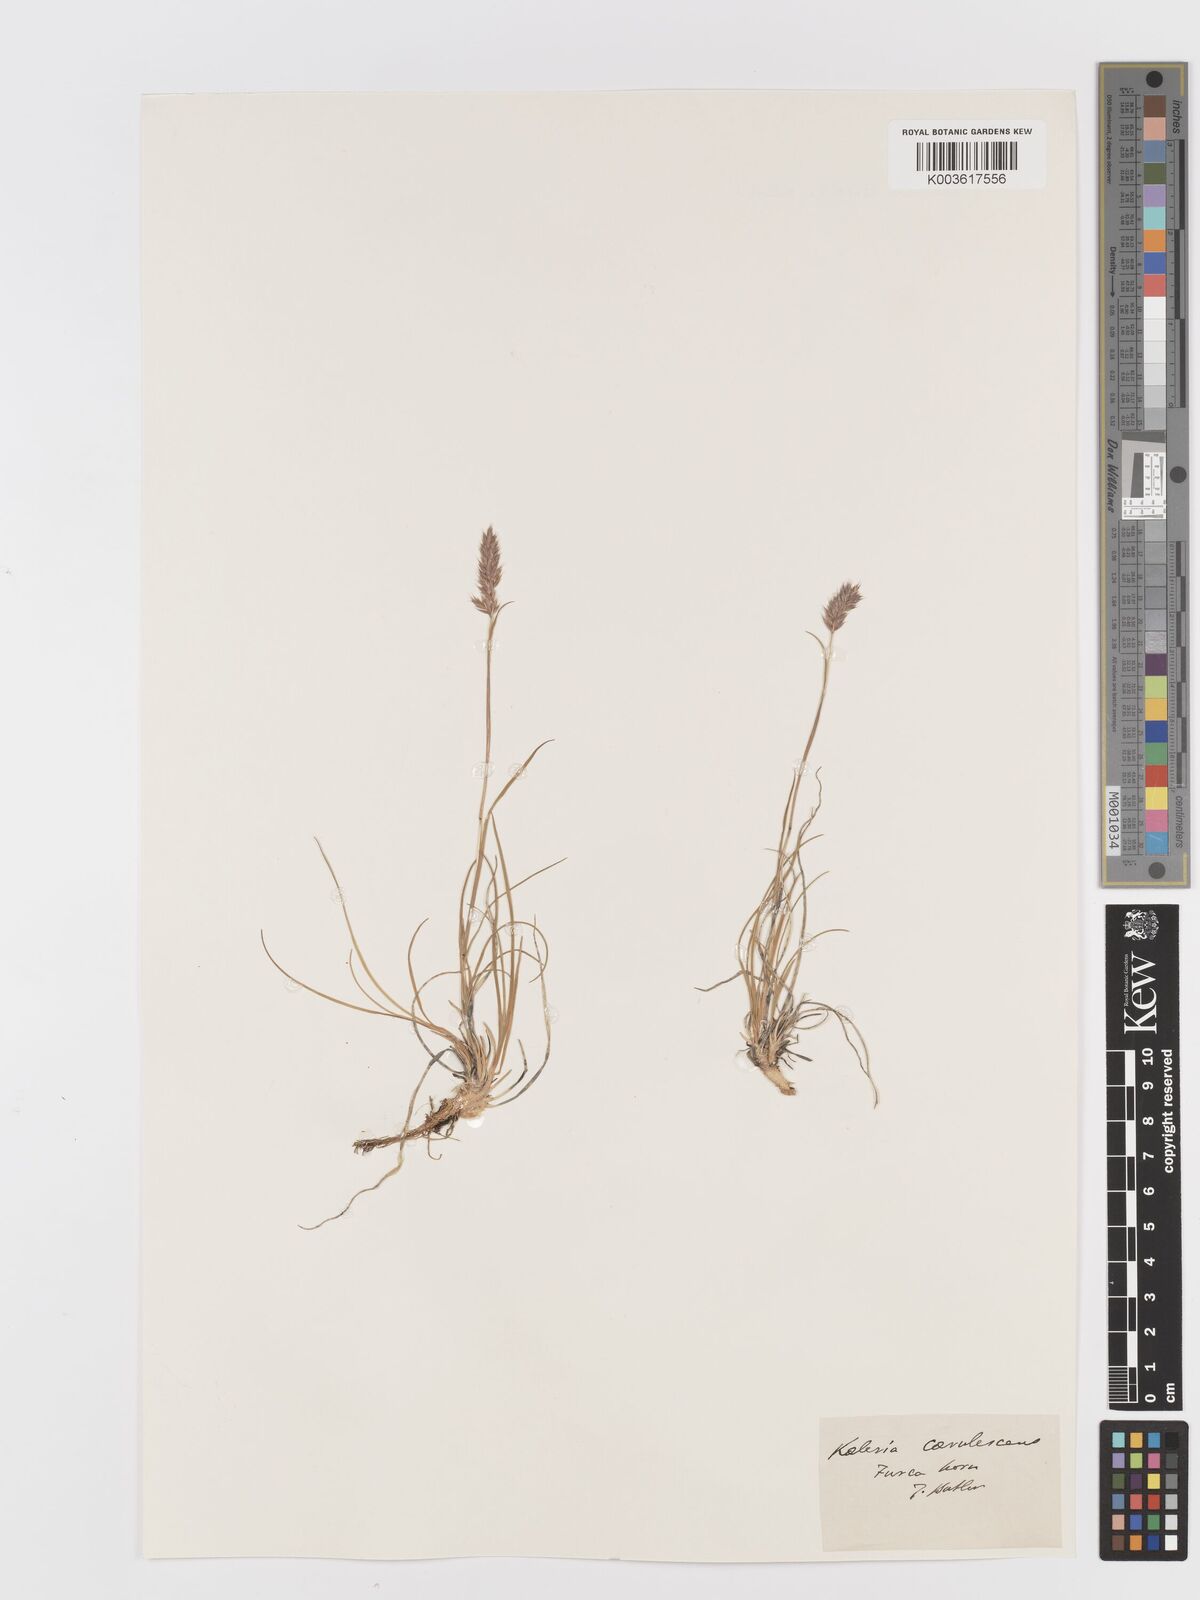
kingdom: Plantae
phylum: Tracheophyta
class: Liliopsida
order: Poales
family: Poaceae
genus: Koeleria
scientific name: Koeleria
